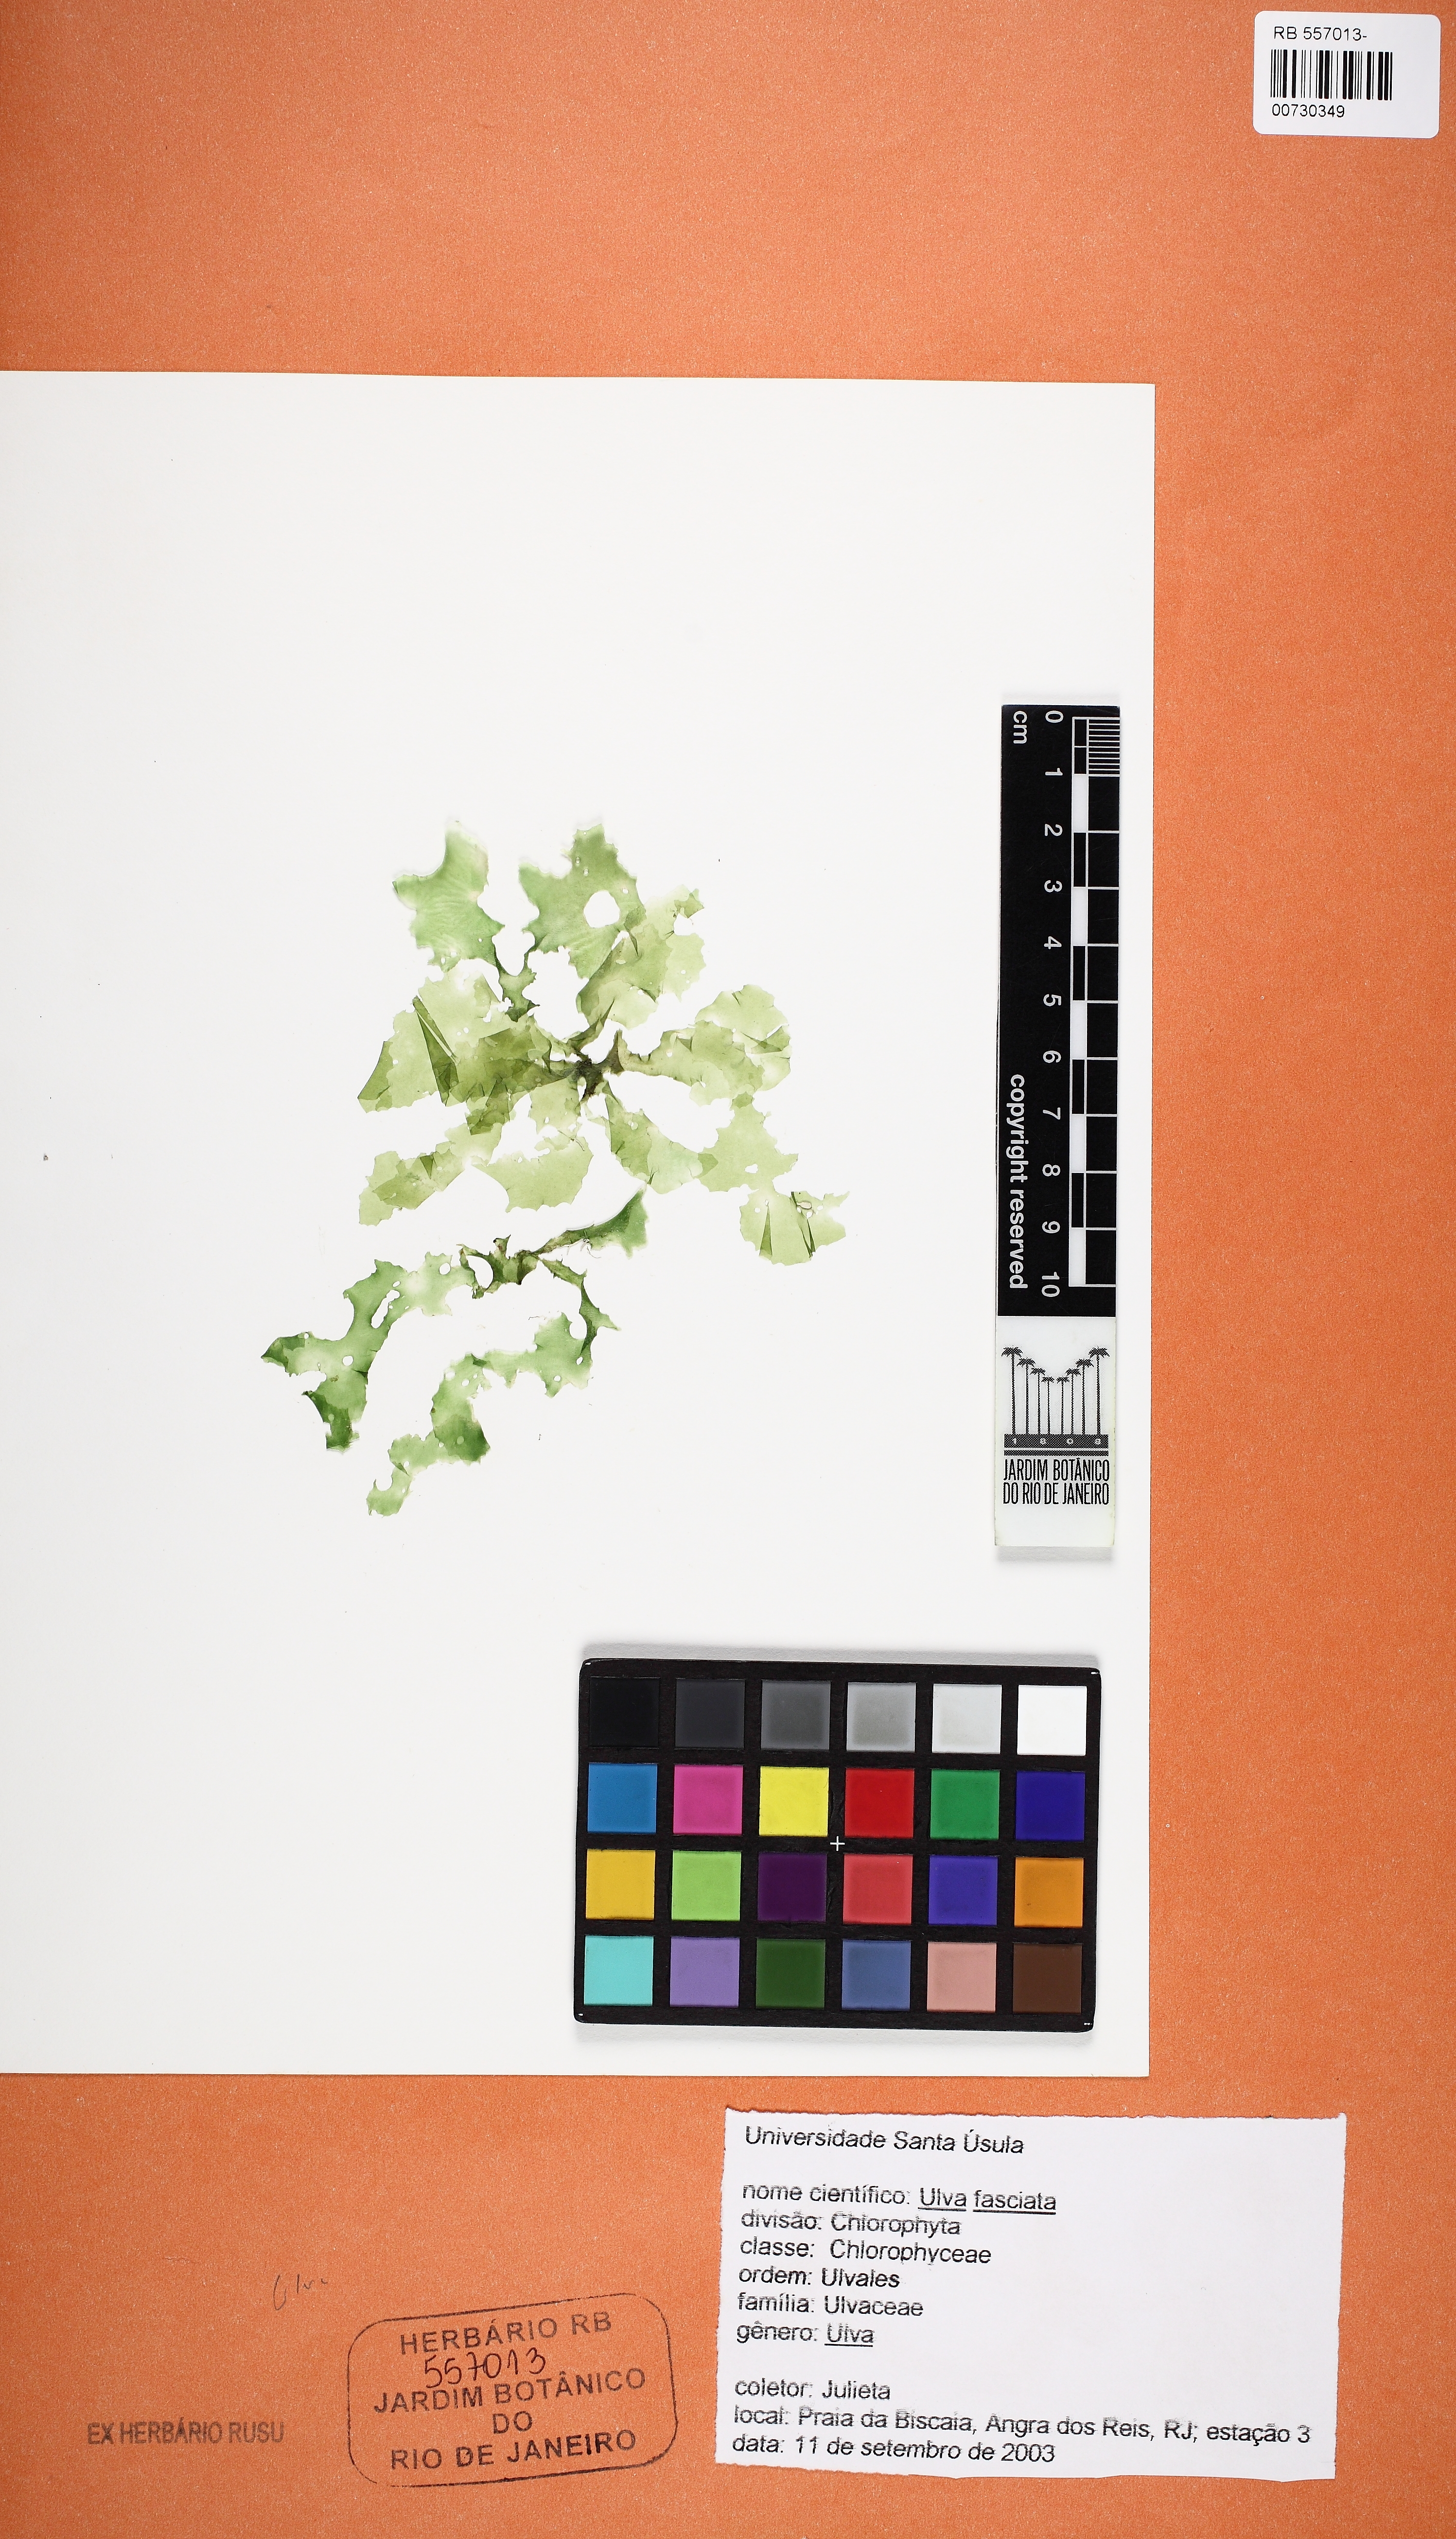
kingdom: Plantae
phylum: Chlorophyta
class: Ulvophyceae
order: Ulvales
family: Ulvaceae
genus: Ulva
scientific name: Ulva lactuca
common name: Sea lettuce
